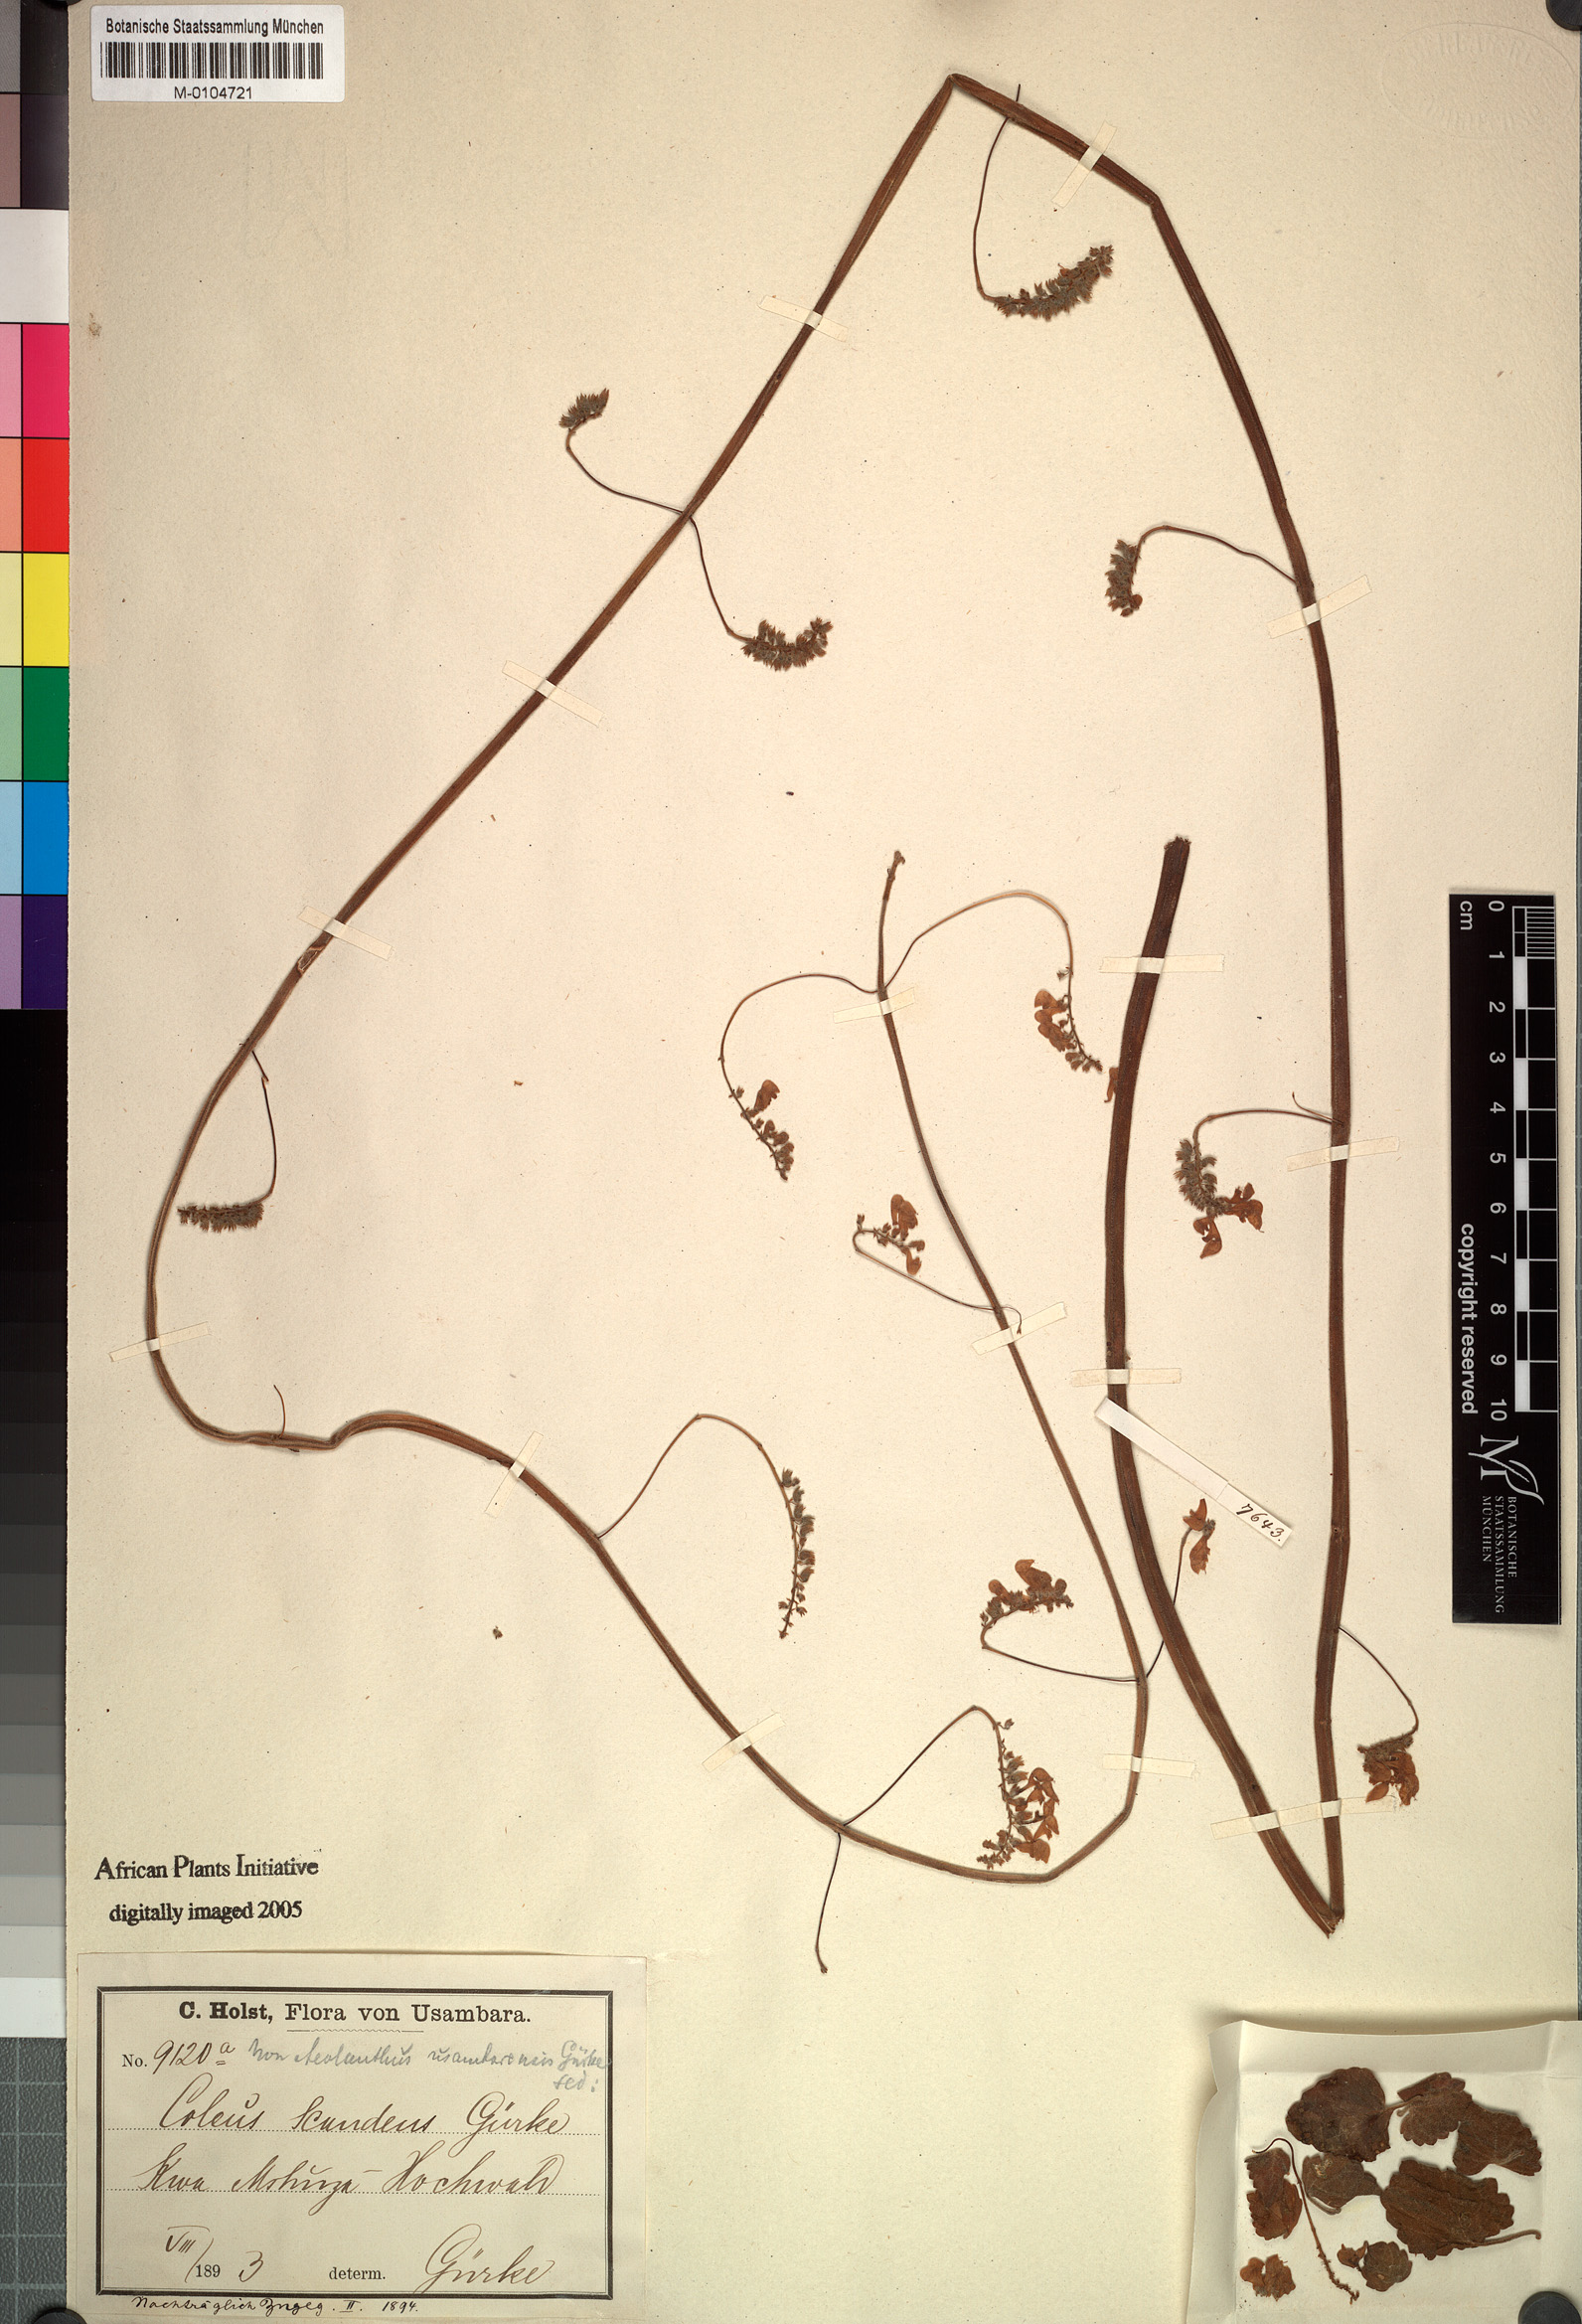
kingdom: Plantae
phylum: Tracheophyta
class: Magnoliopsida
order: Lamiales
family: Lamiaceae
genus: Coleus
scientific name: Coleus scandens
